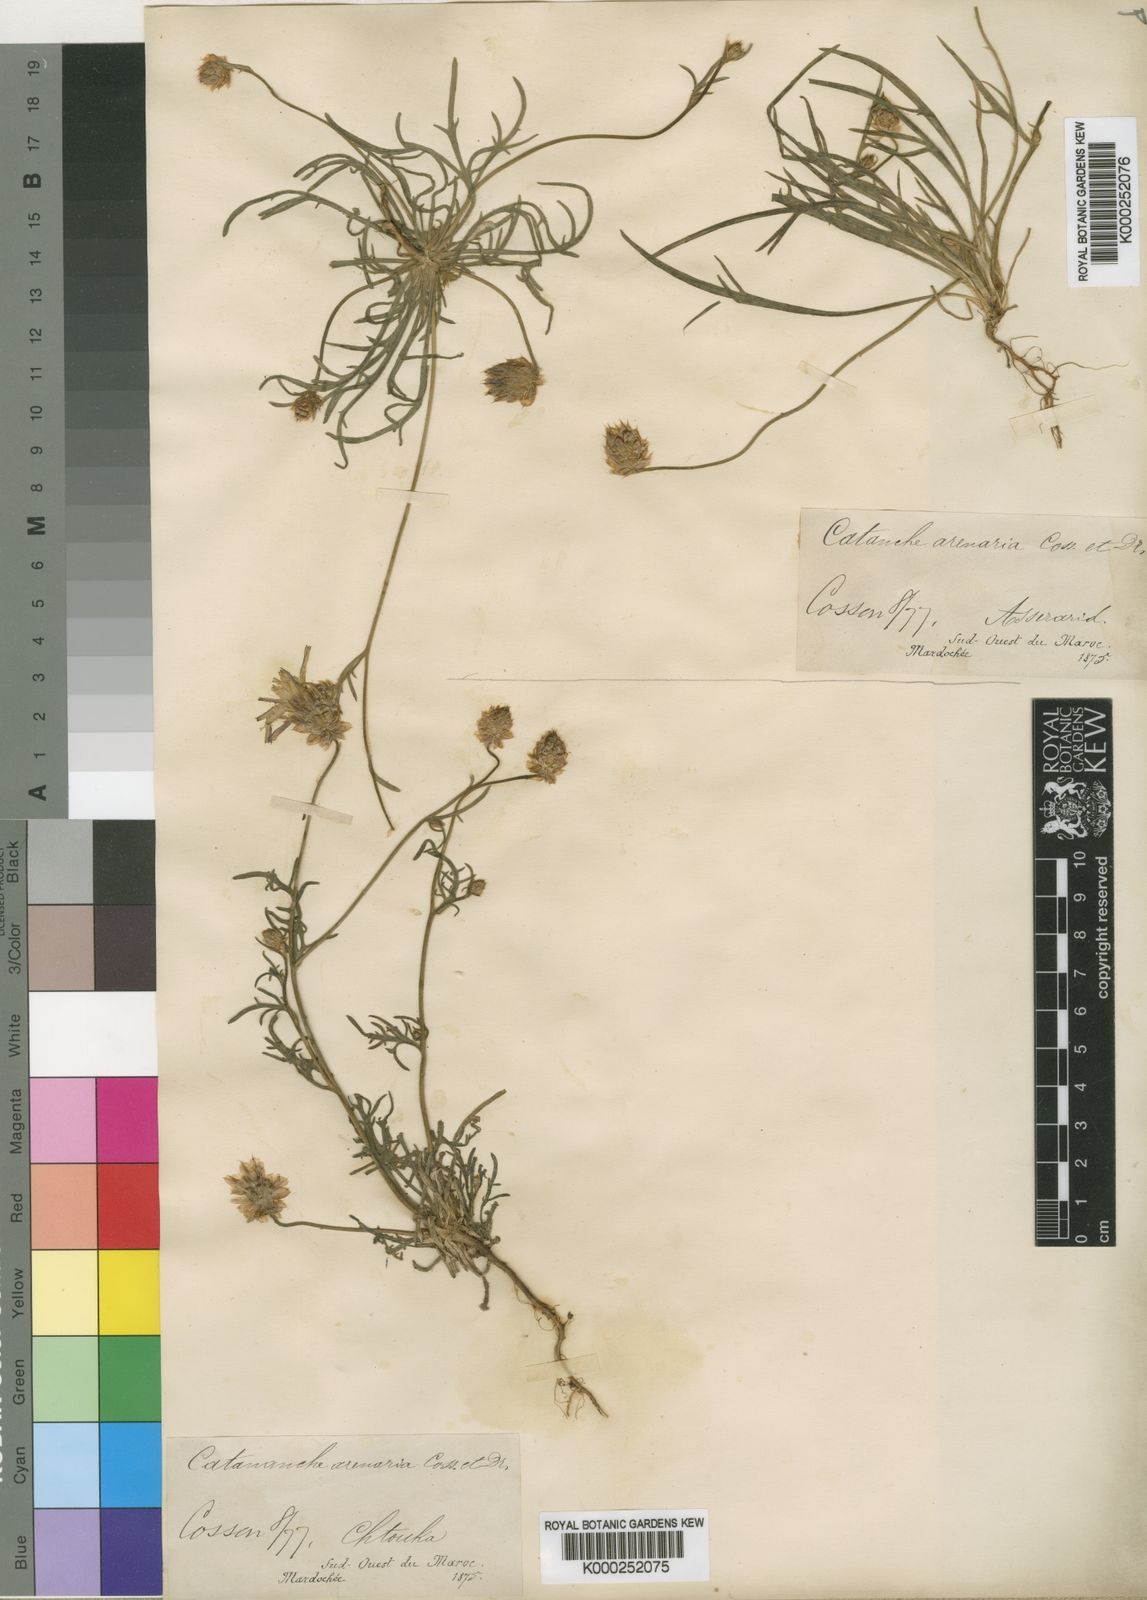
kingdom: Plantae
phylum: Tracheophyta
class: Magnoliopsida
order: Asterales
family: Asteraceae
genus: Catananche
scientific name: Catananche arenaria
